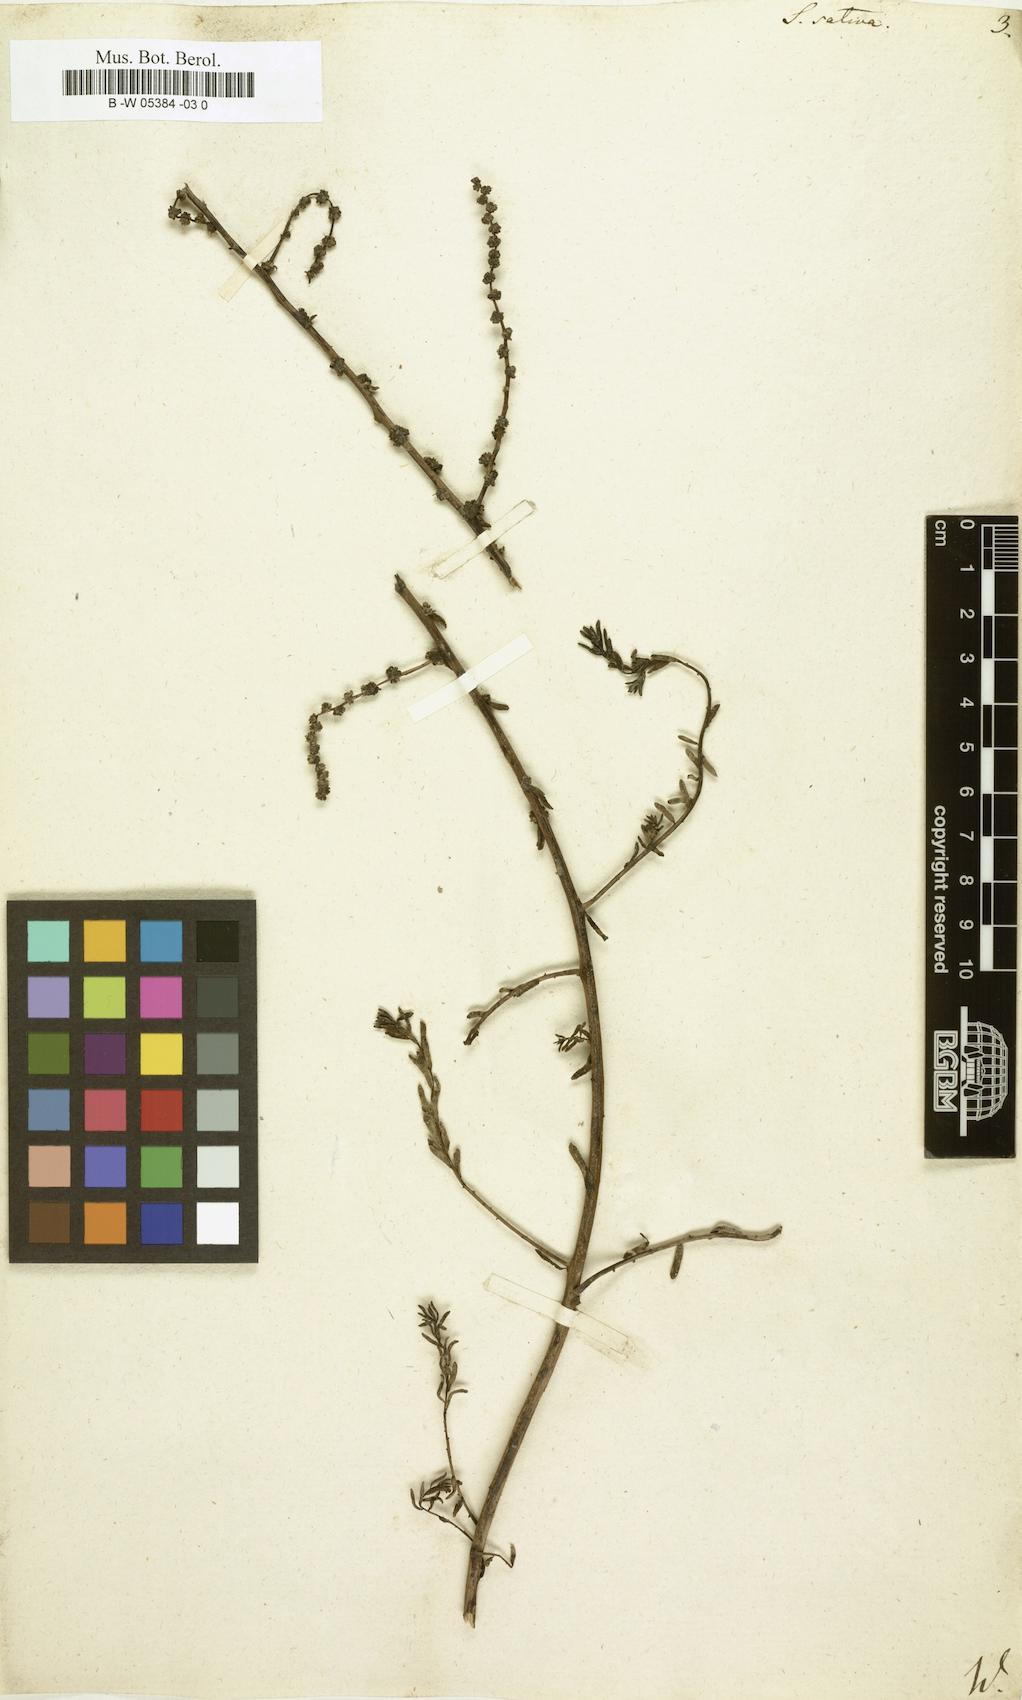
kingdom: Plantae
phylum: Tracheophyta
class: Magnoliopsida
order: Caryophyllales
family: Amaranthaceae
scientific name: Amaranthaceae
